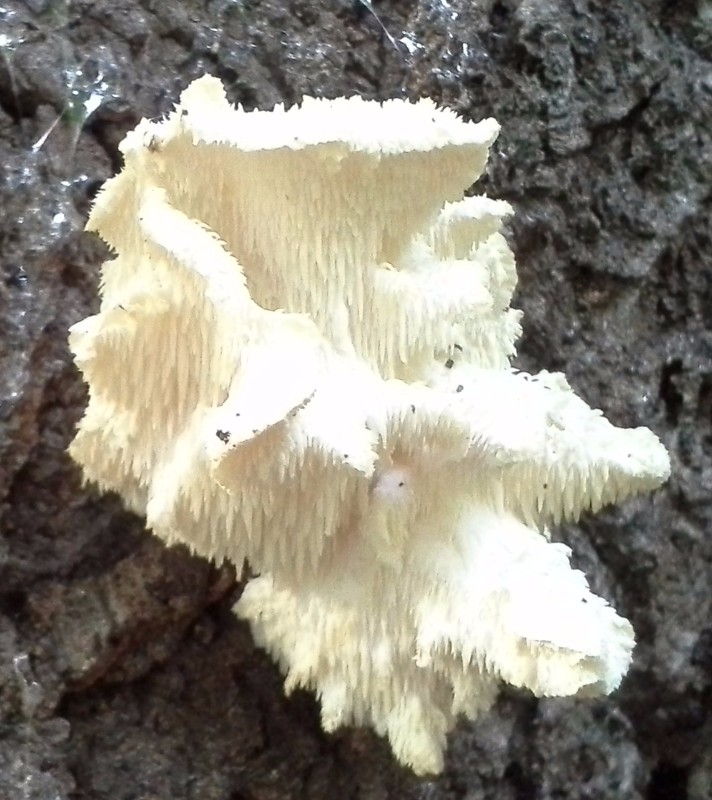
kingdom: Fungi
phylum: Basidiomycota
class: Agaricomycetes
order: Russulales
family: Hericiaceae
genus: Hericium
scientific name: Hericium cirrhatum
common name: børstepigsvamp
